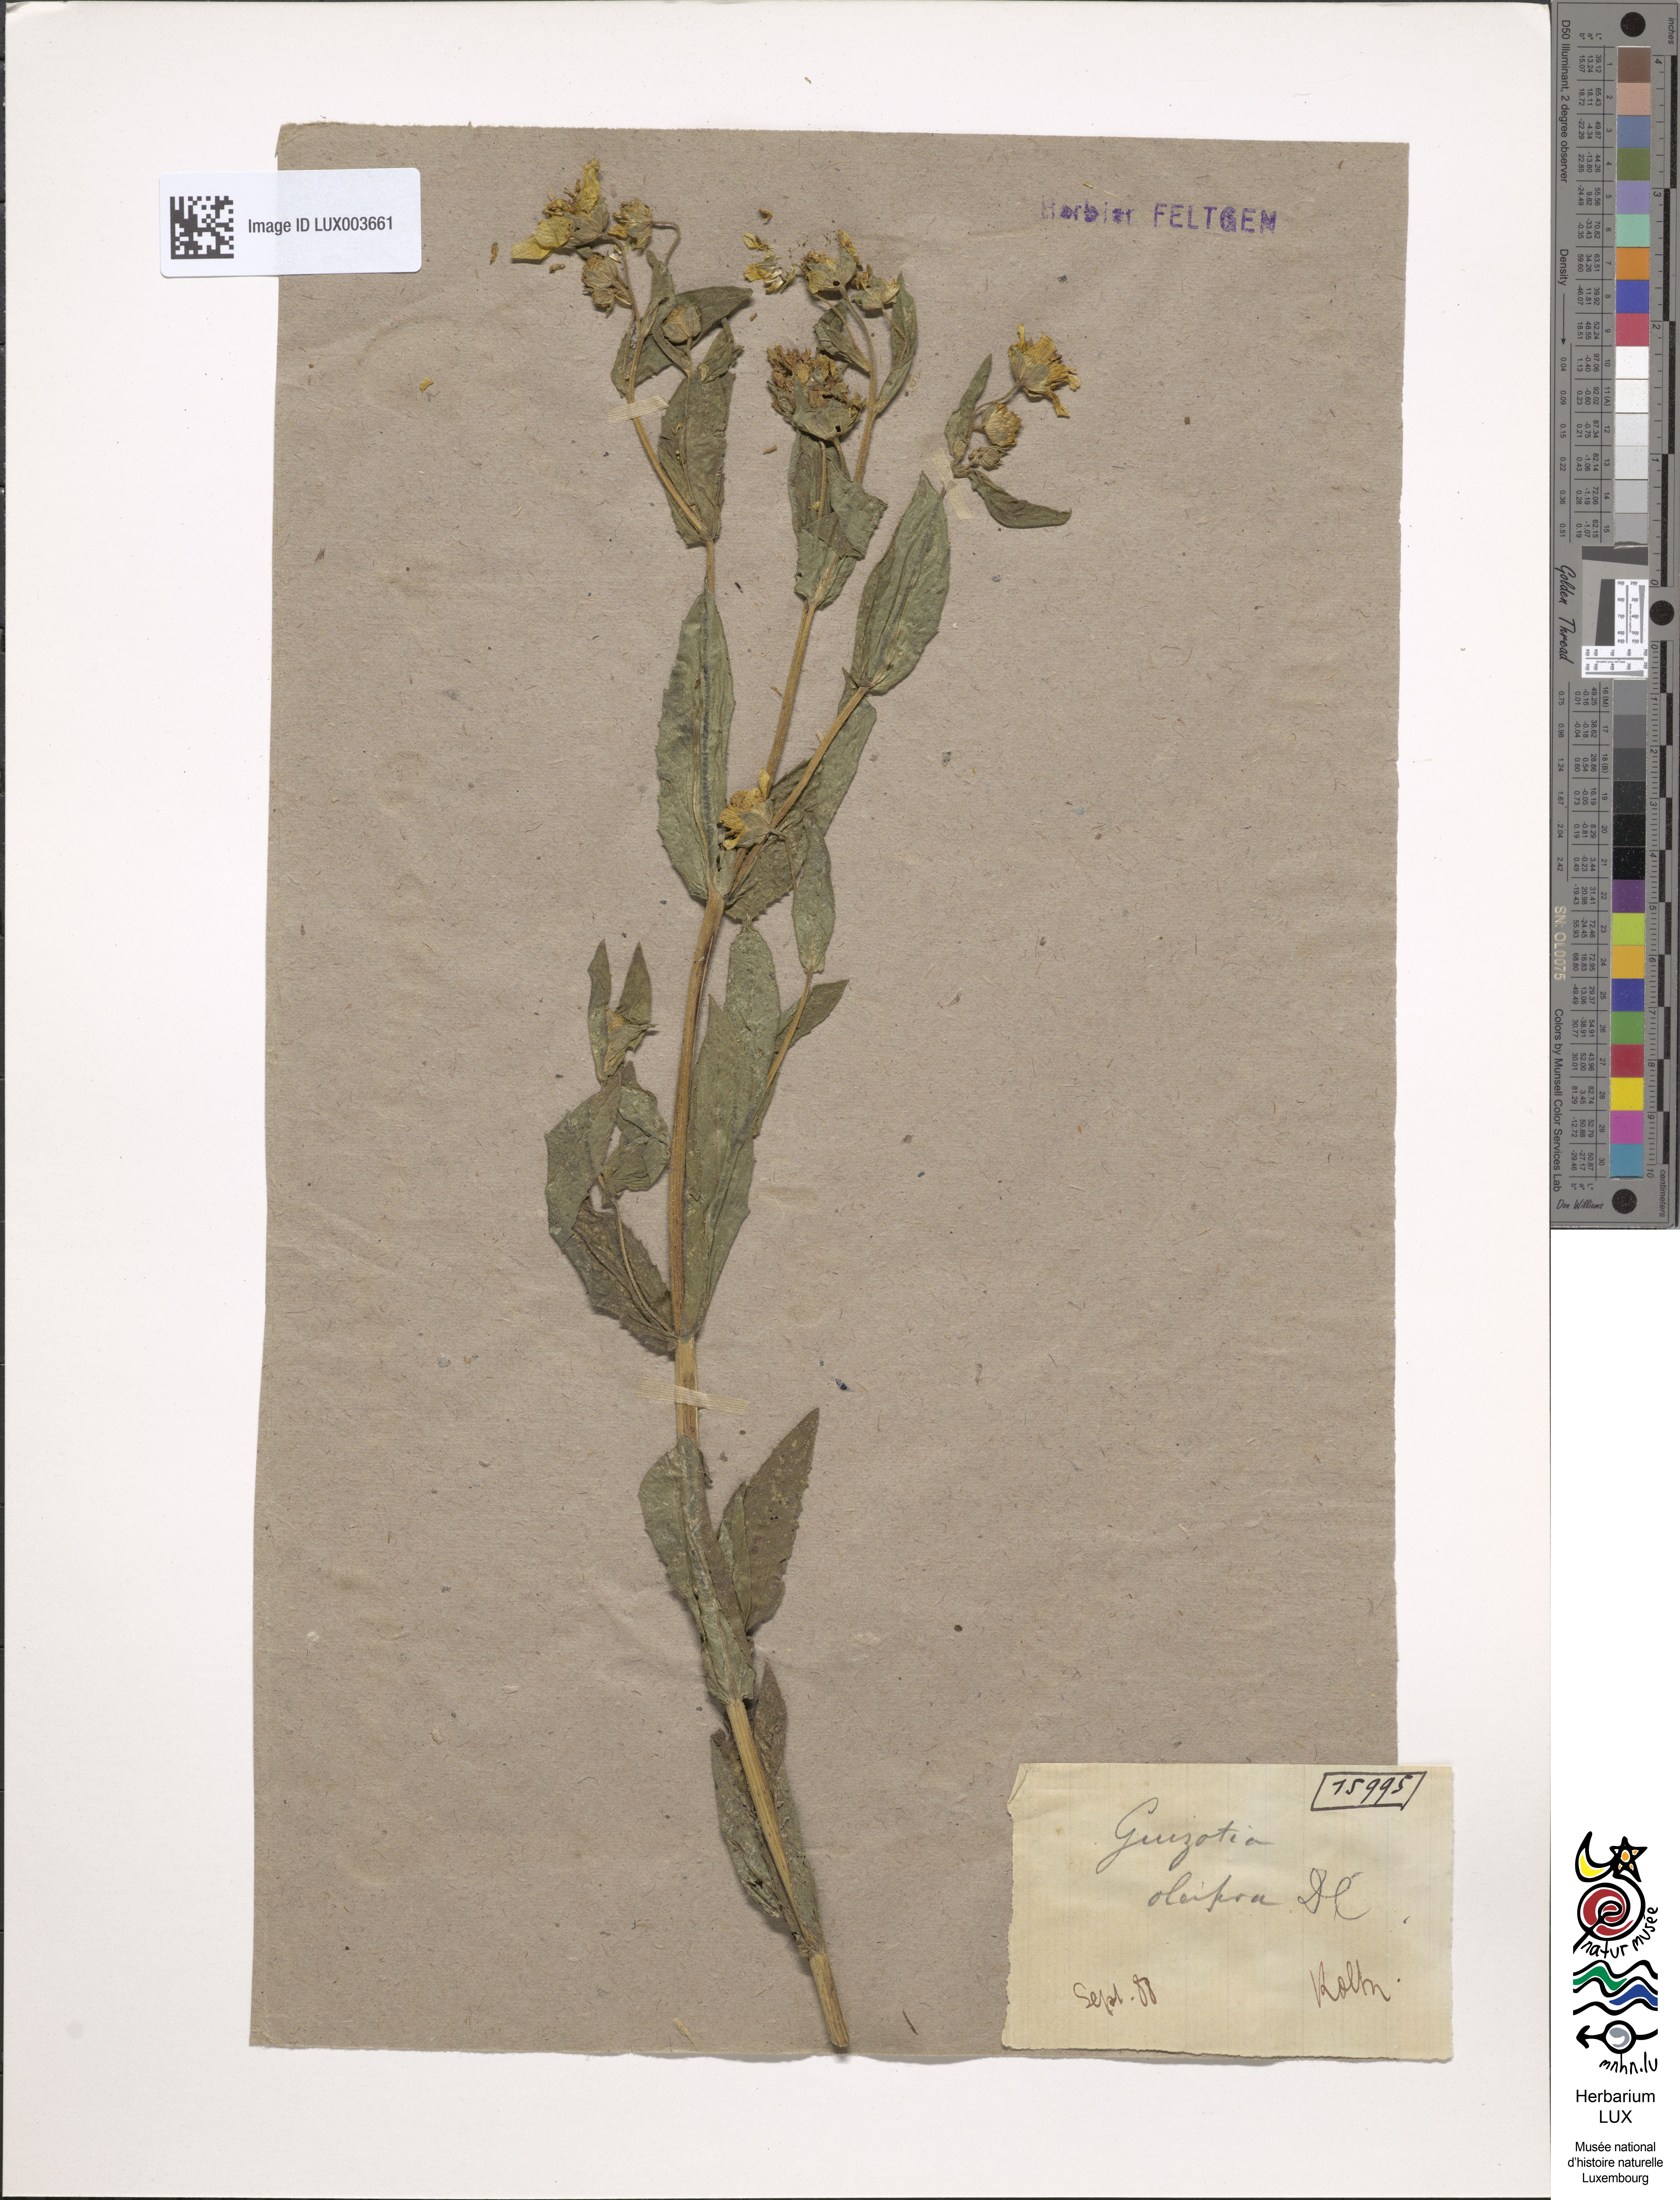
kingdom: Plantae
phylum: Tracheophyta
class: Magnoliopsida
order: Asterales
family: Asteraceae
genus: Guizotia
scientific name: Guizotia abyssinica
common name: Niger
